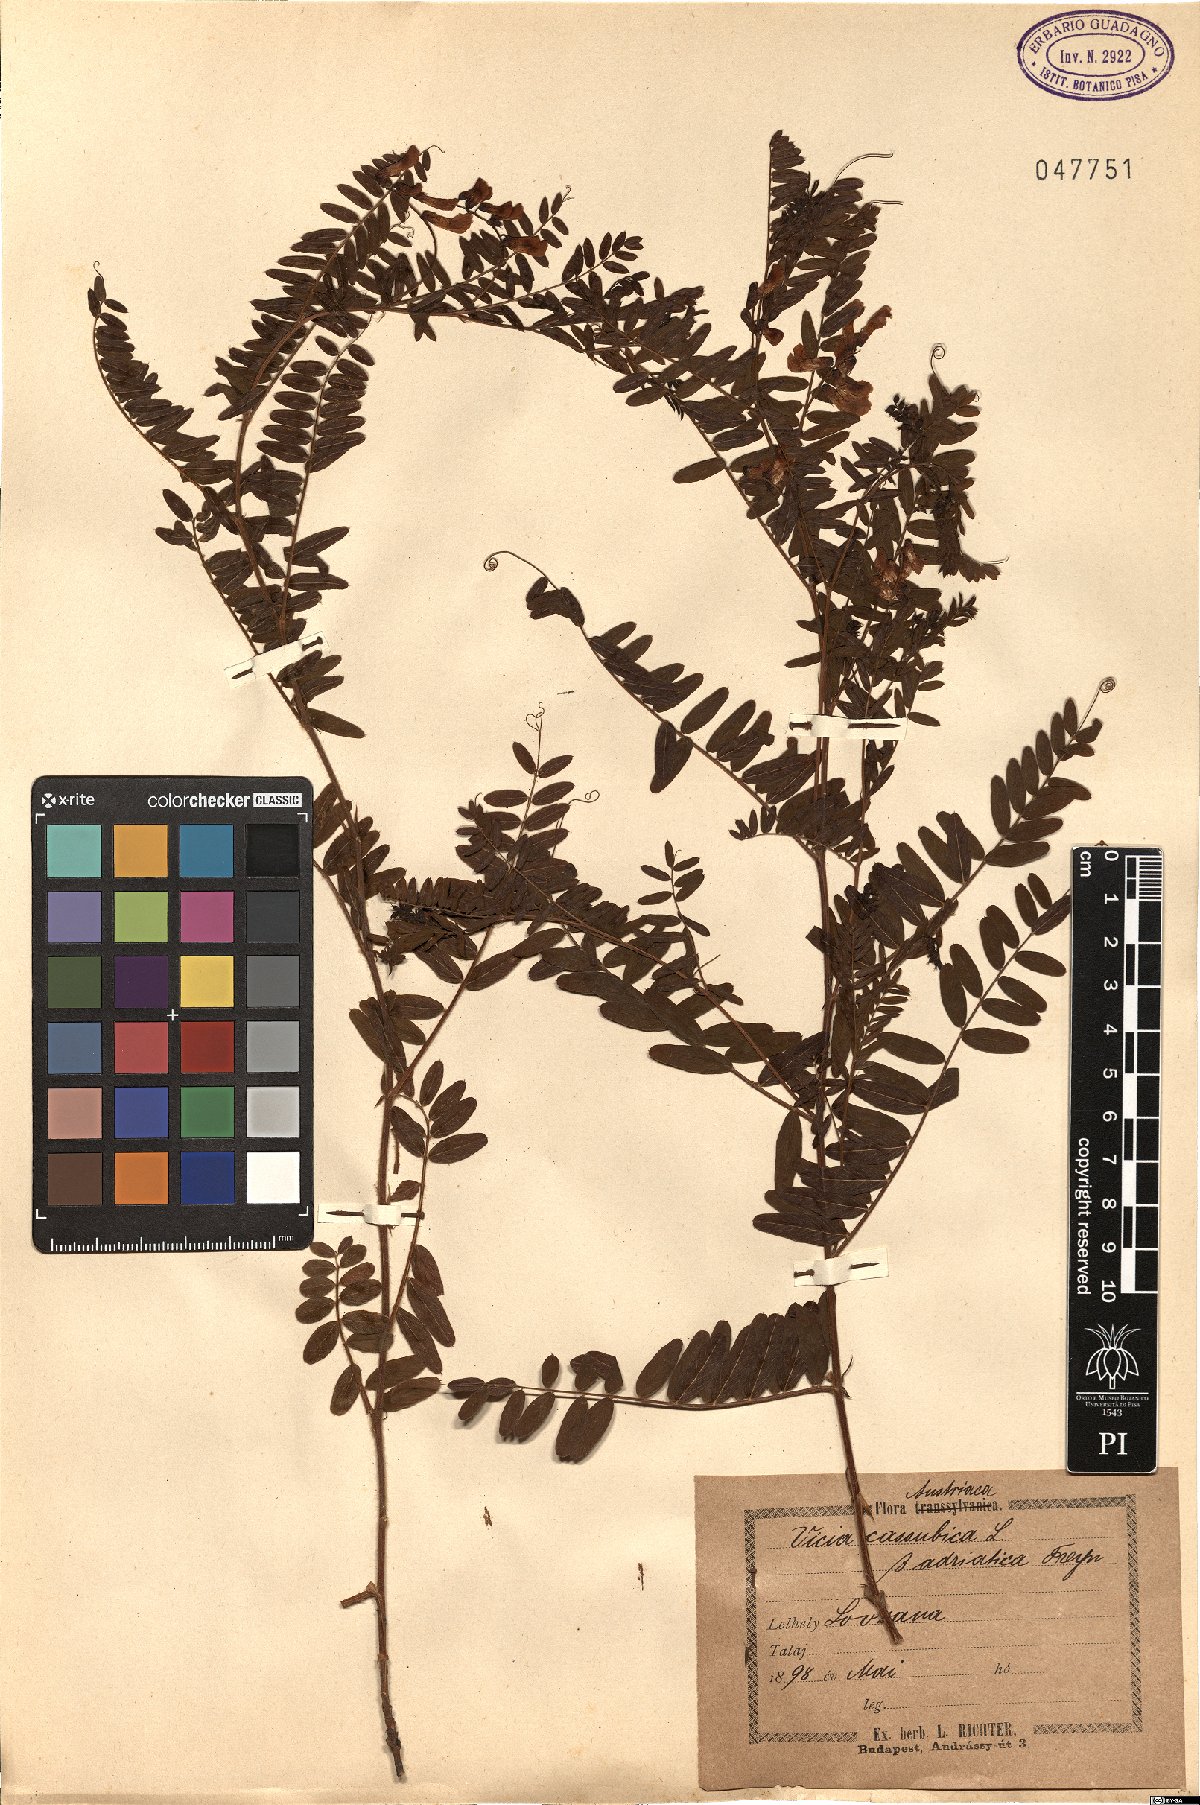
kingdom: Plantae
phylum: Tracheophyta
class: Magnoliopsida
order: Fabales
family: Fabaceae
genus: Vicia
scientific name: Vicia cassubica
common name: Danzig vetch
